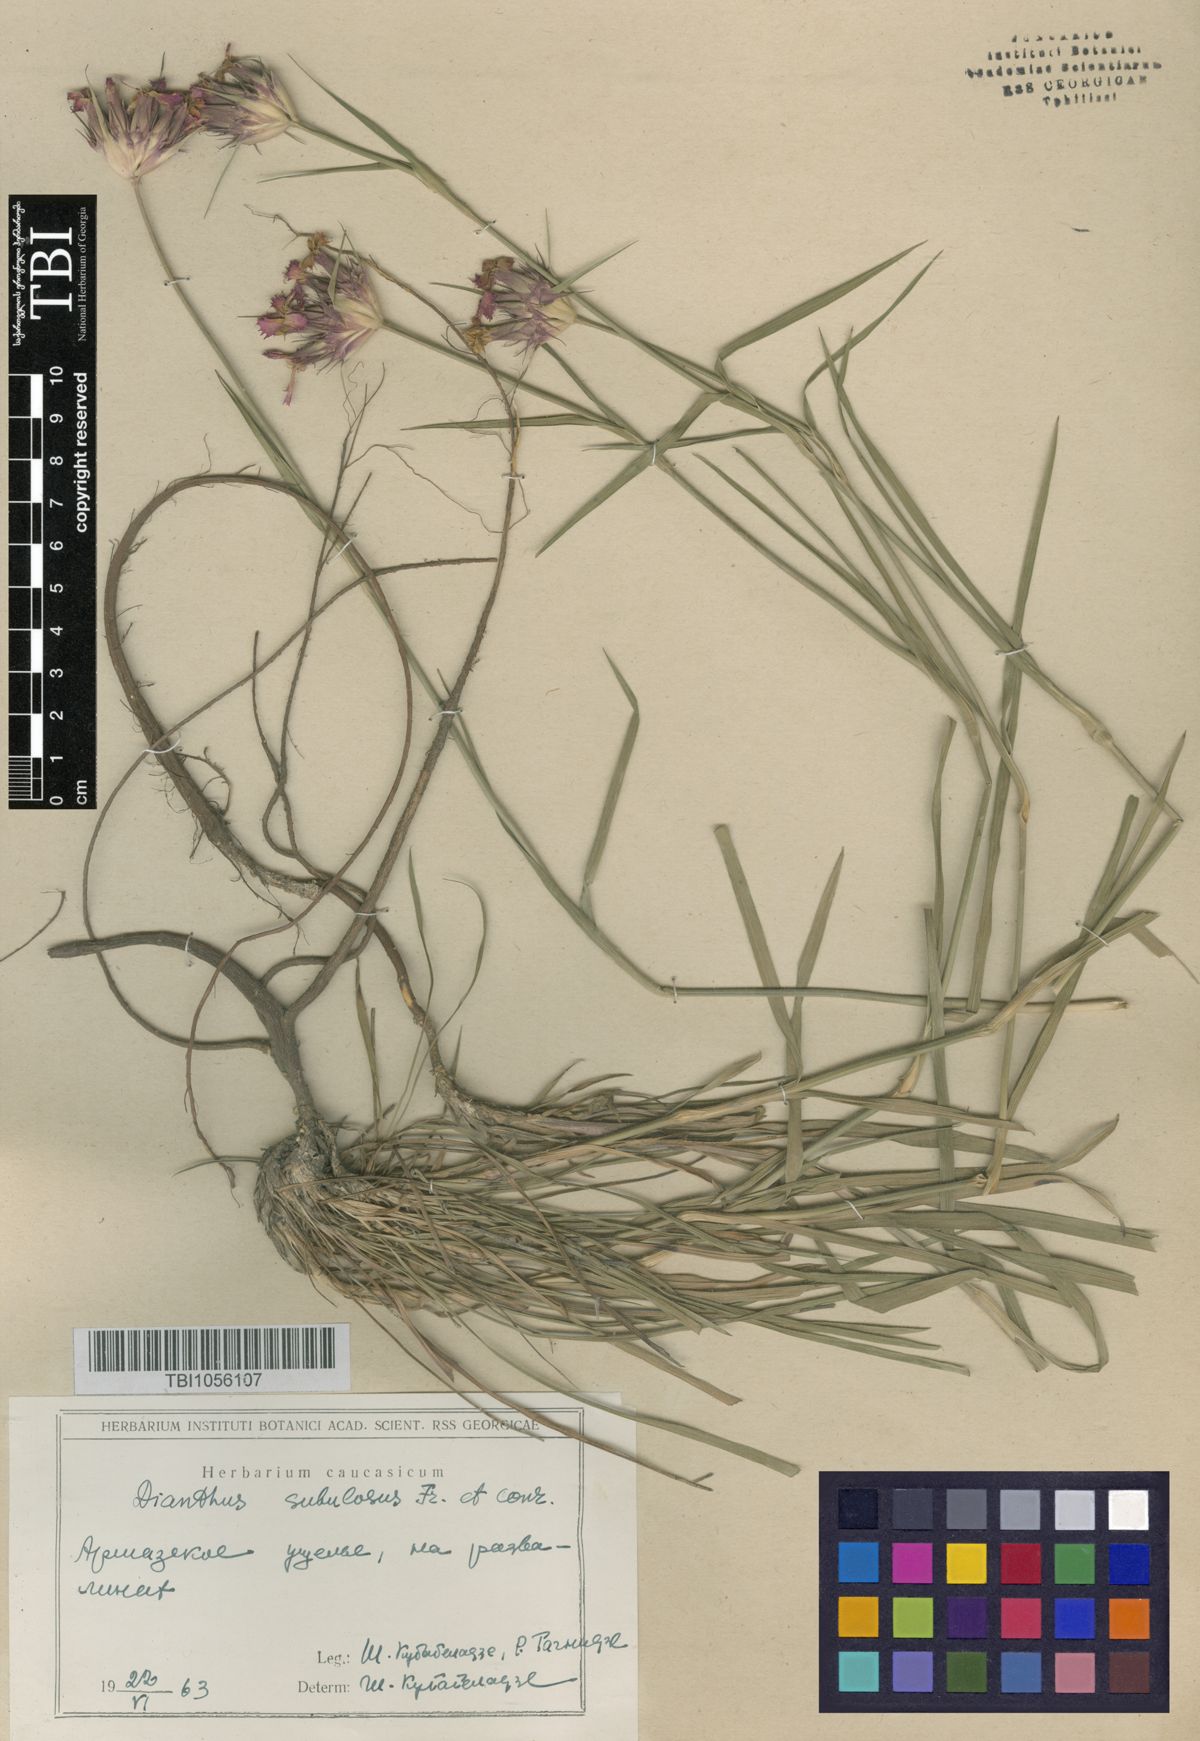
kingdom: Plantae
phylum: Tracheophyta
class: Magnoliopsida
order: Caryophyllales
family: Caryophyllaceae
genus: Dianthus
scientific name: Dianthus subulosus
